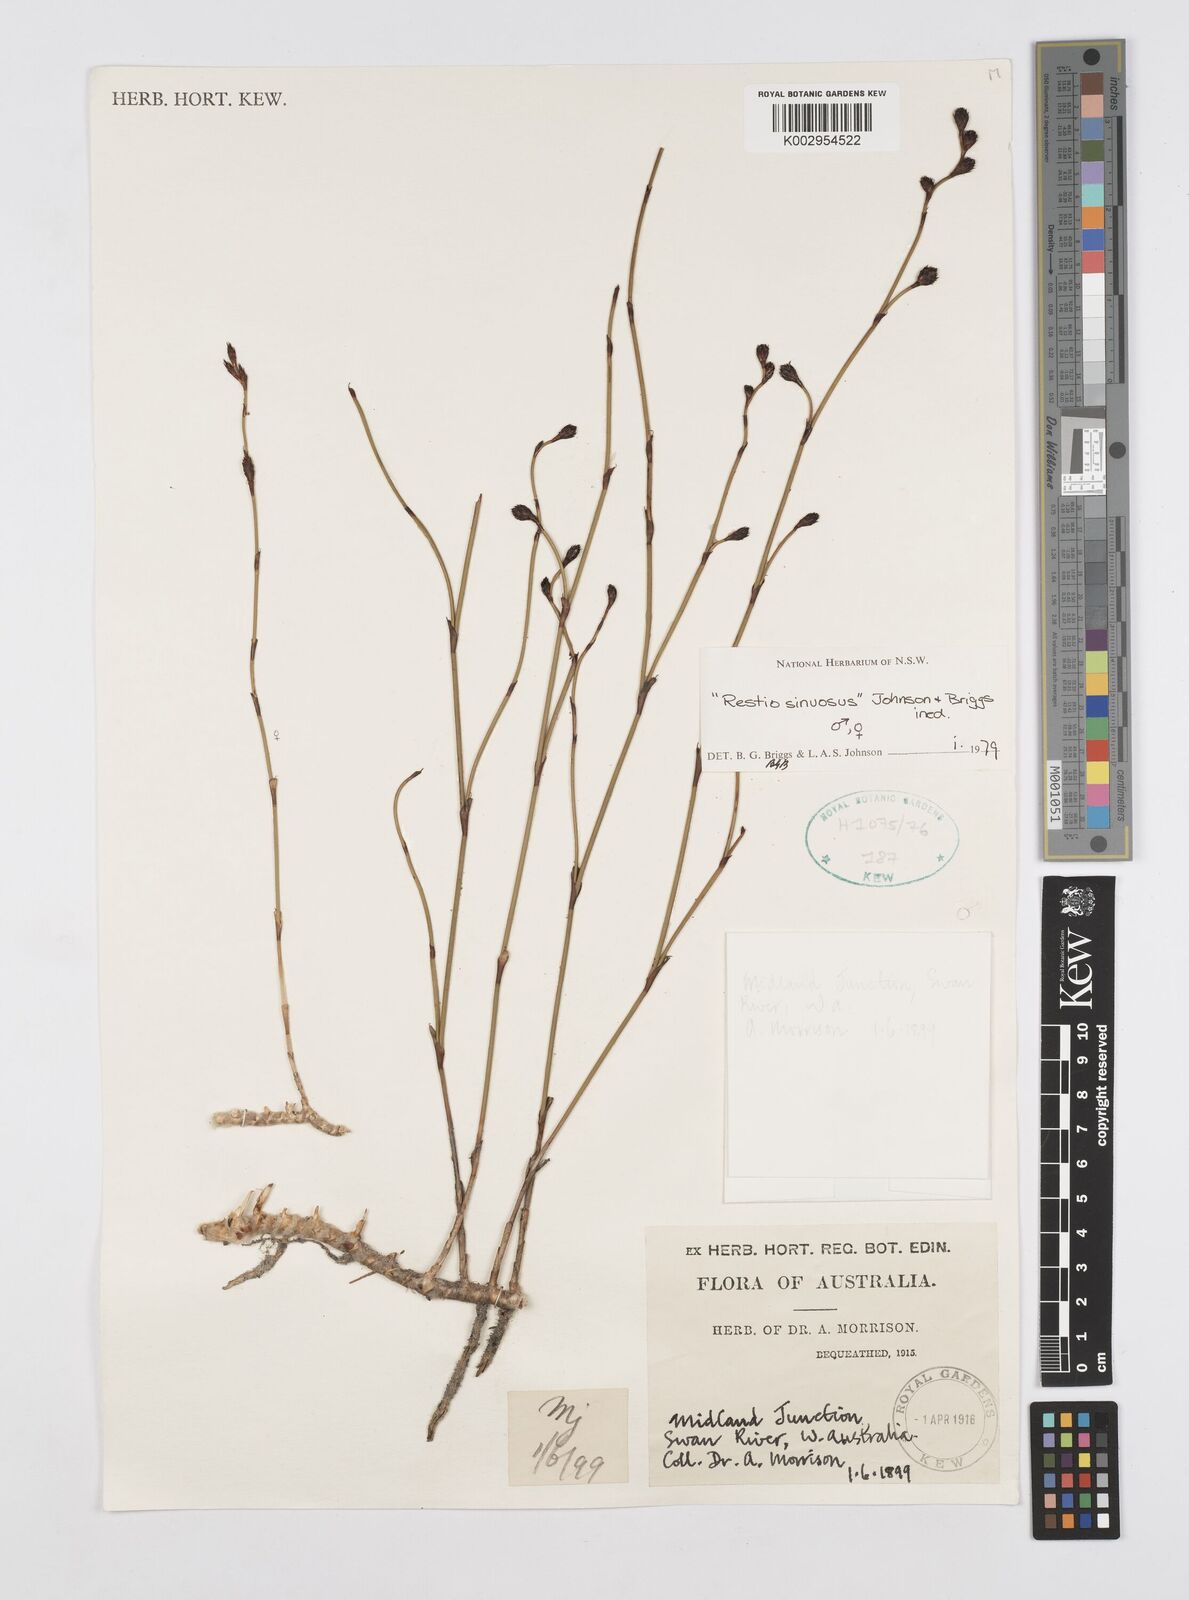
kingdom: Plantae
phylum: Tracheophyta
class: Liliopsida
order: Poales
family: Restionaceae
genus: Chordifex
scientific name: Chordifex sinuosus
